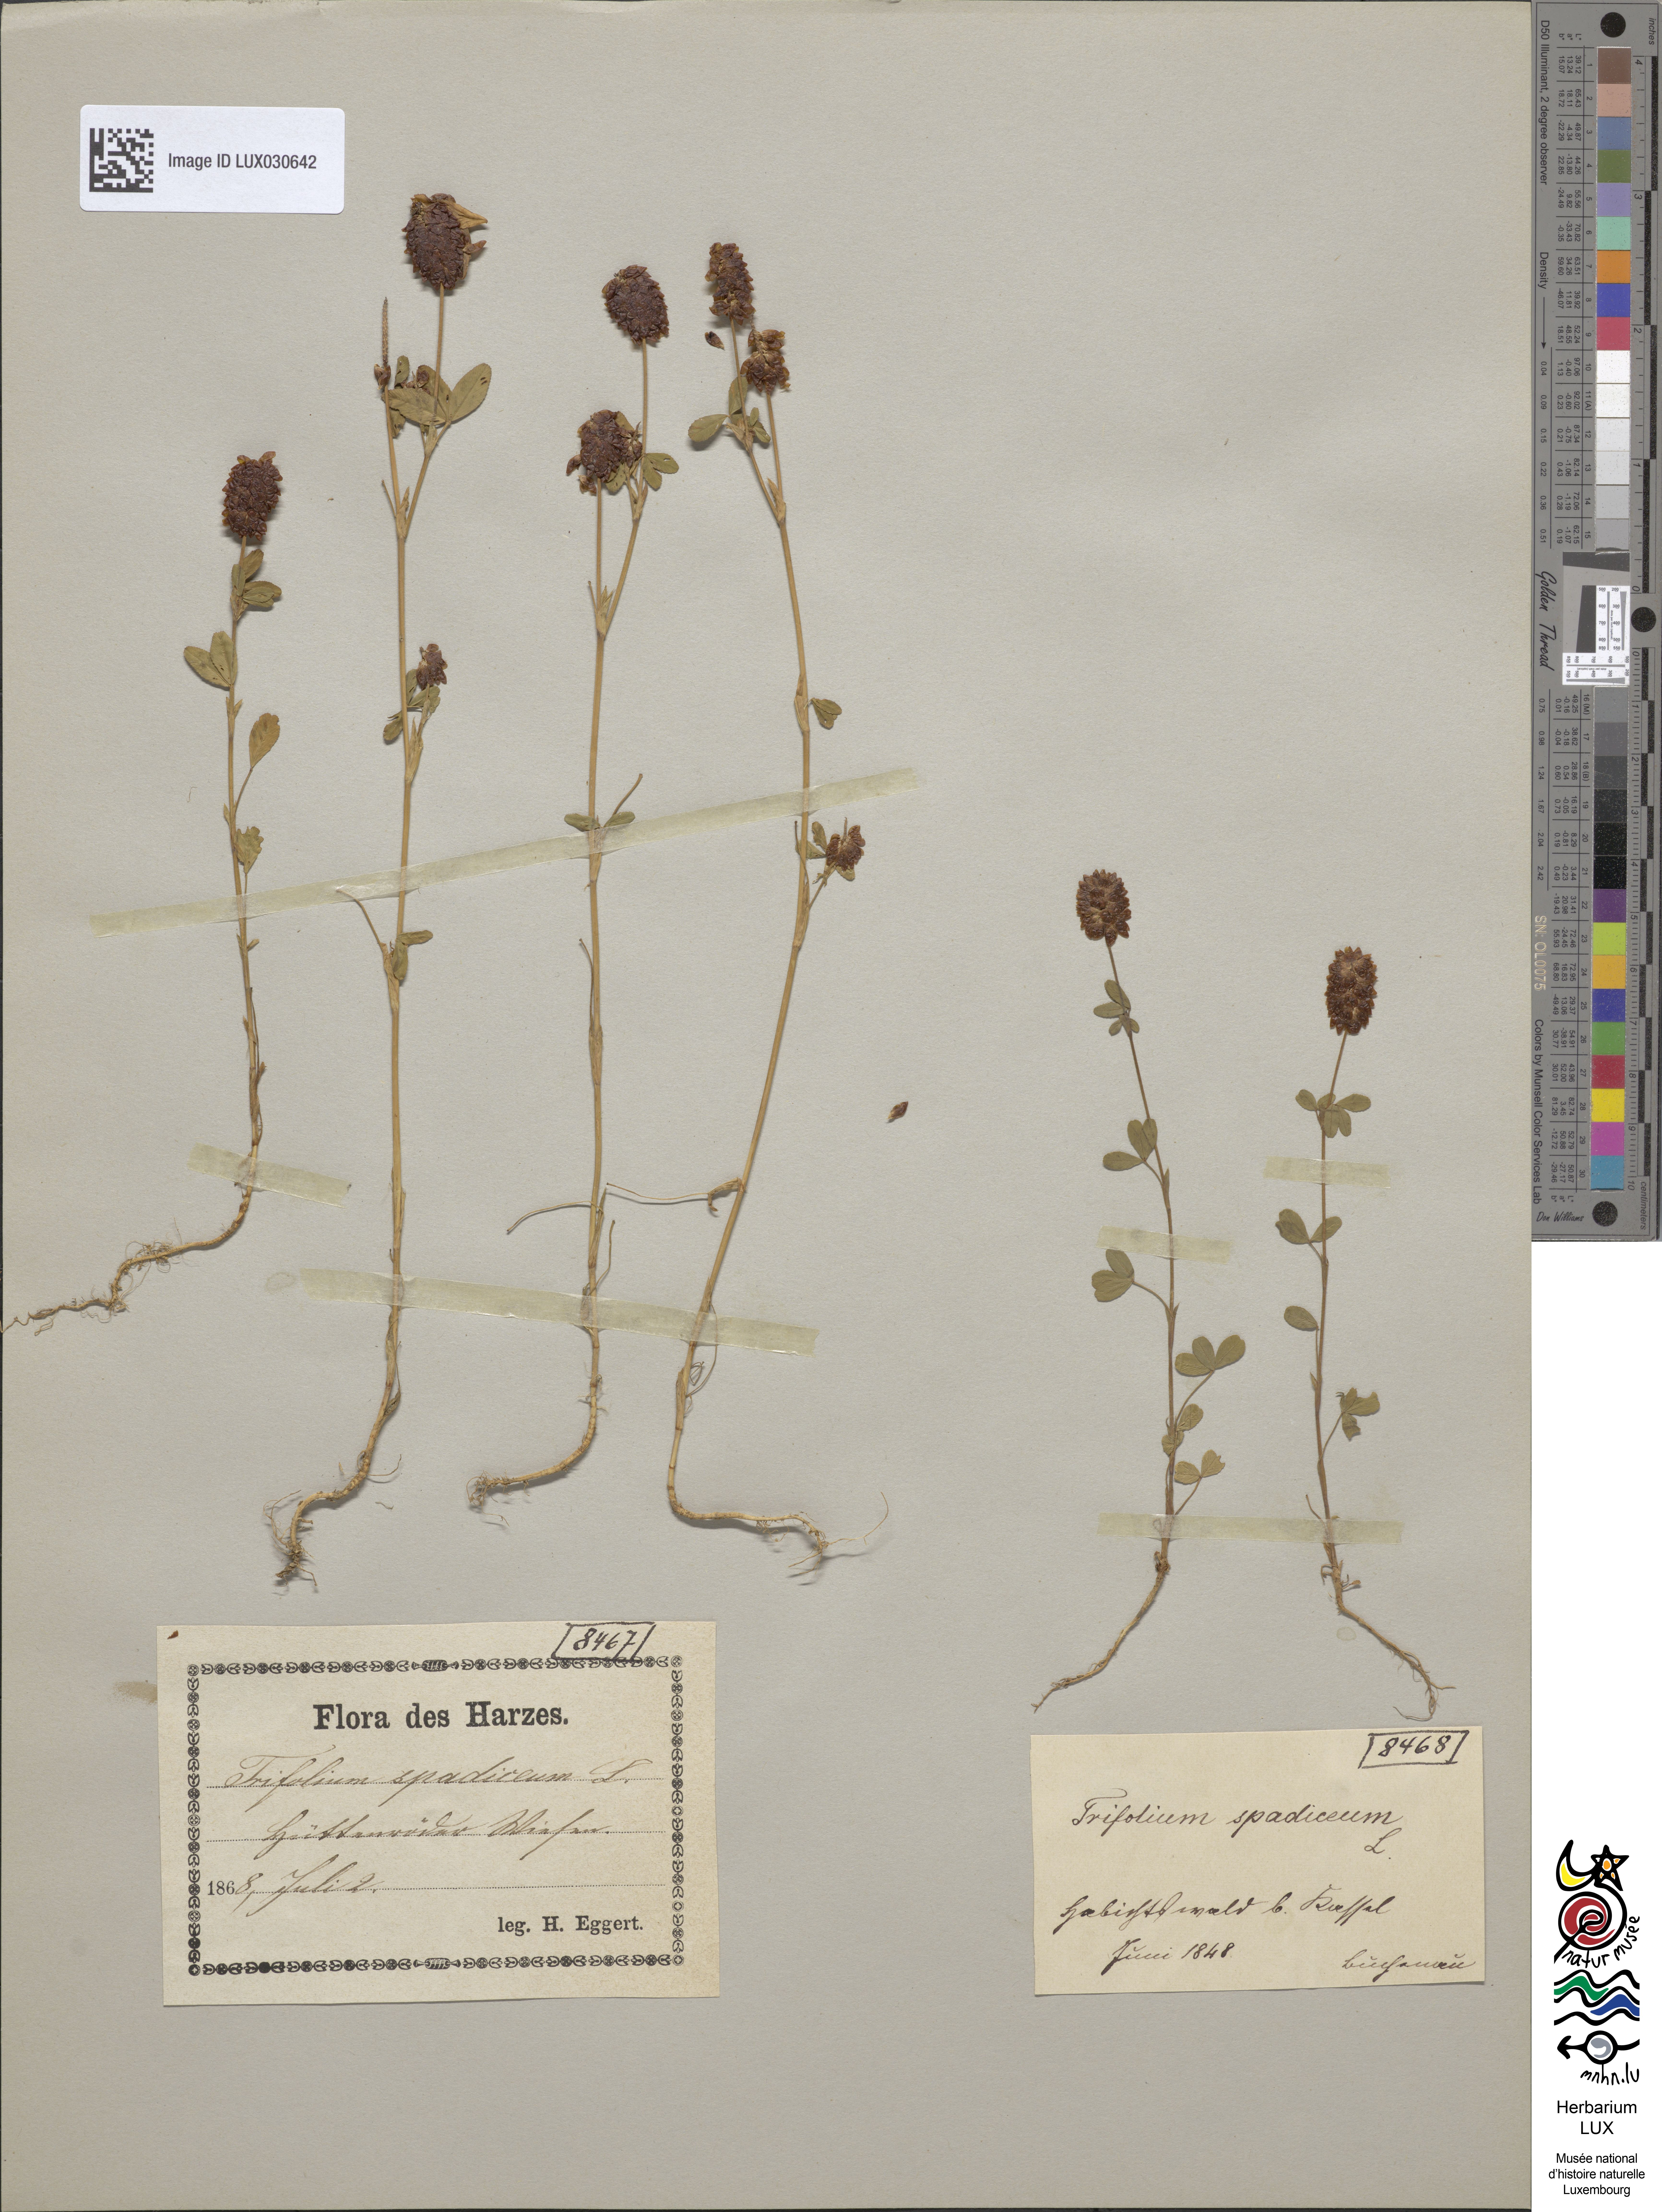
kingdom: Plantae
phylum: Tracheophyta
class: Magnoliopsida
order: Fabales
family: Fabaceae
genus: Trifolium
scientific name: Trifolium spadiceum
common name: Brown moor clover
